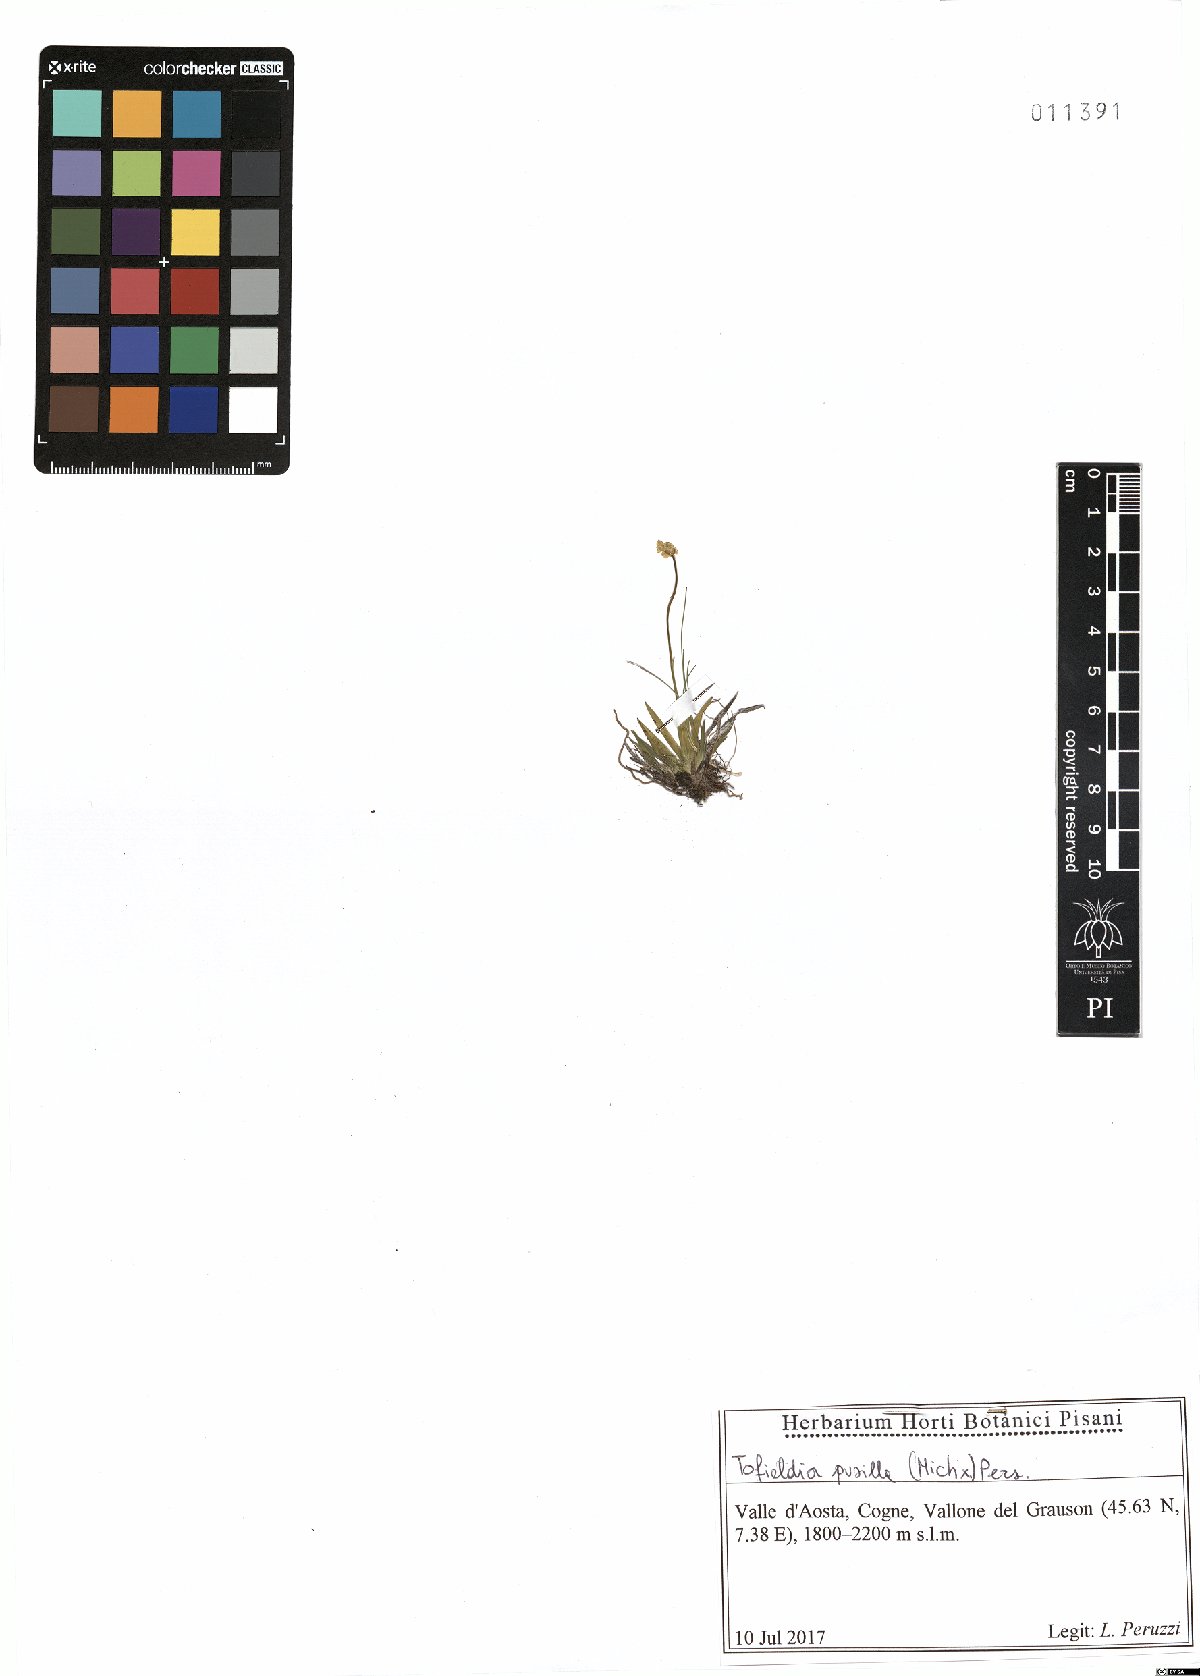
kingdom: Plantae
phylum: Tracheophyta
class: Liliopsida
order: Alismatales
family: Tofieldiaceae
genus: Tofieldia
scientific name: Tofieldia pusilla
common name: Scottish false asphodel
